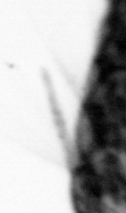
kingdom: Animalia
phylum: Annelida
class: Polychaeta
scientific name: Polychaeta
